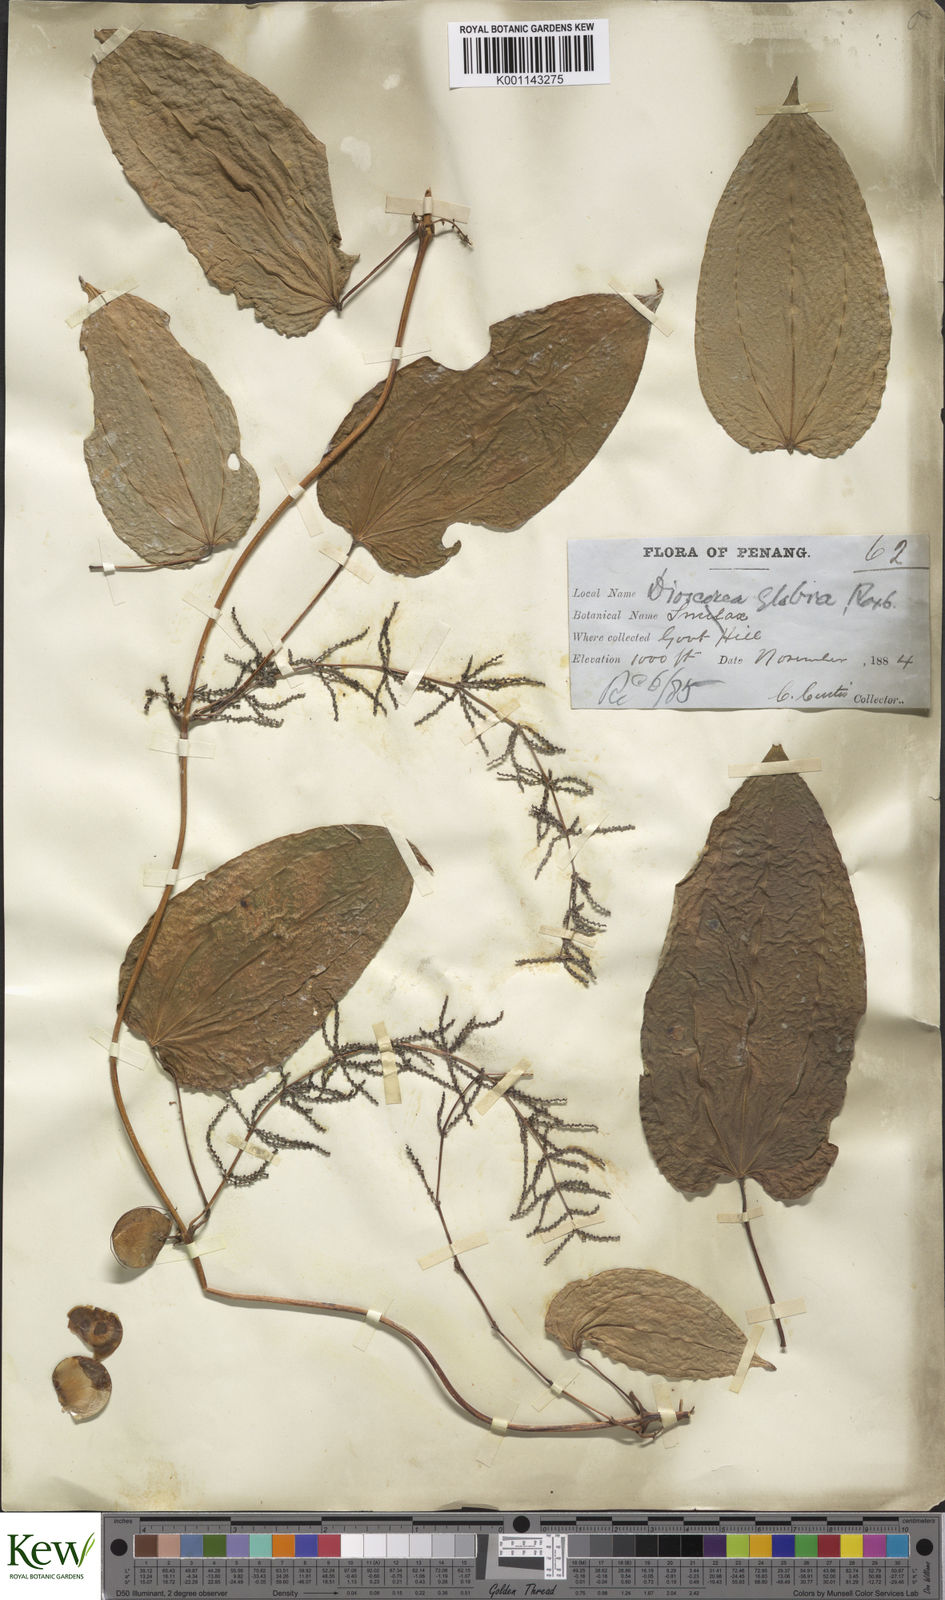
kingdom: Plantae
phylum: Tracheophyta
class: Liliopsida
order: Dioscoreales
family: Dioscoreaceae
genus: Dioscorea
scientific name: Dioscorea glabra
